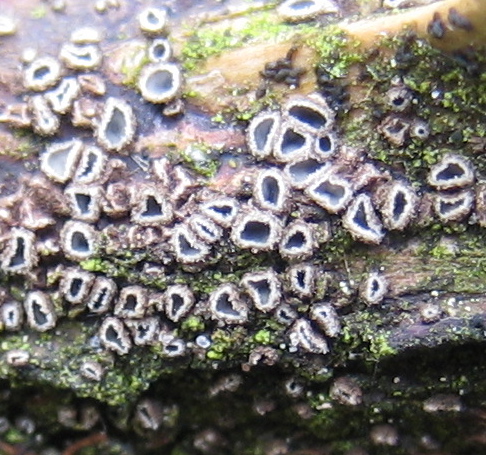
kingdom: Fungi
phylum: Ascomycota
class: Leotiomycetes
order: Helotiales
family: Mollisiaceae
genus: Mollisia
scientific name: Mollisia rosae
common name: rose-gråskive
